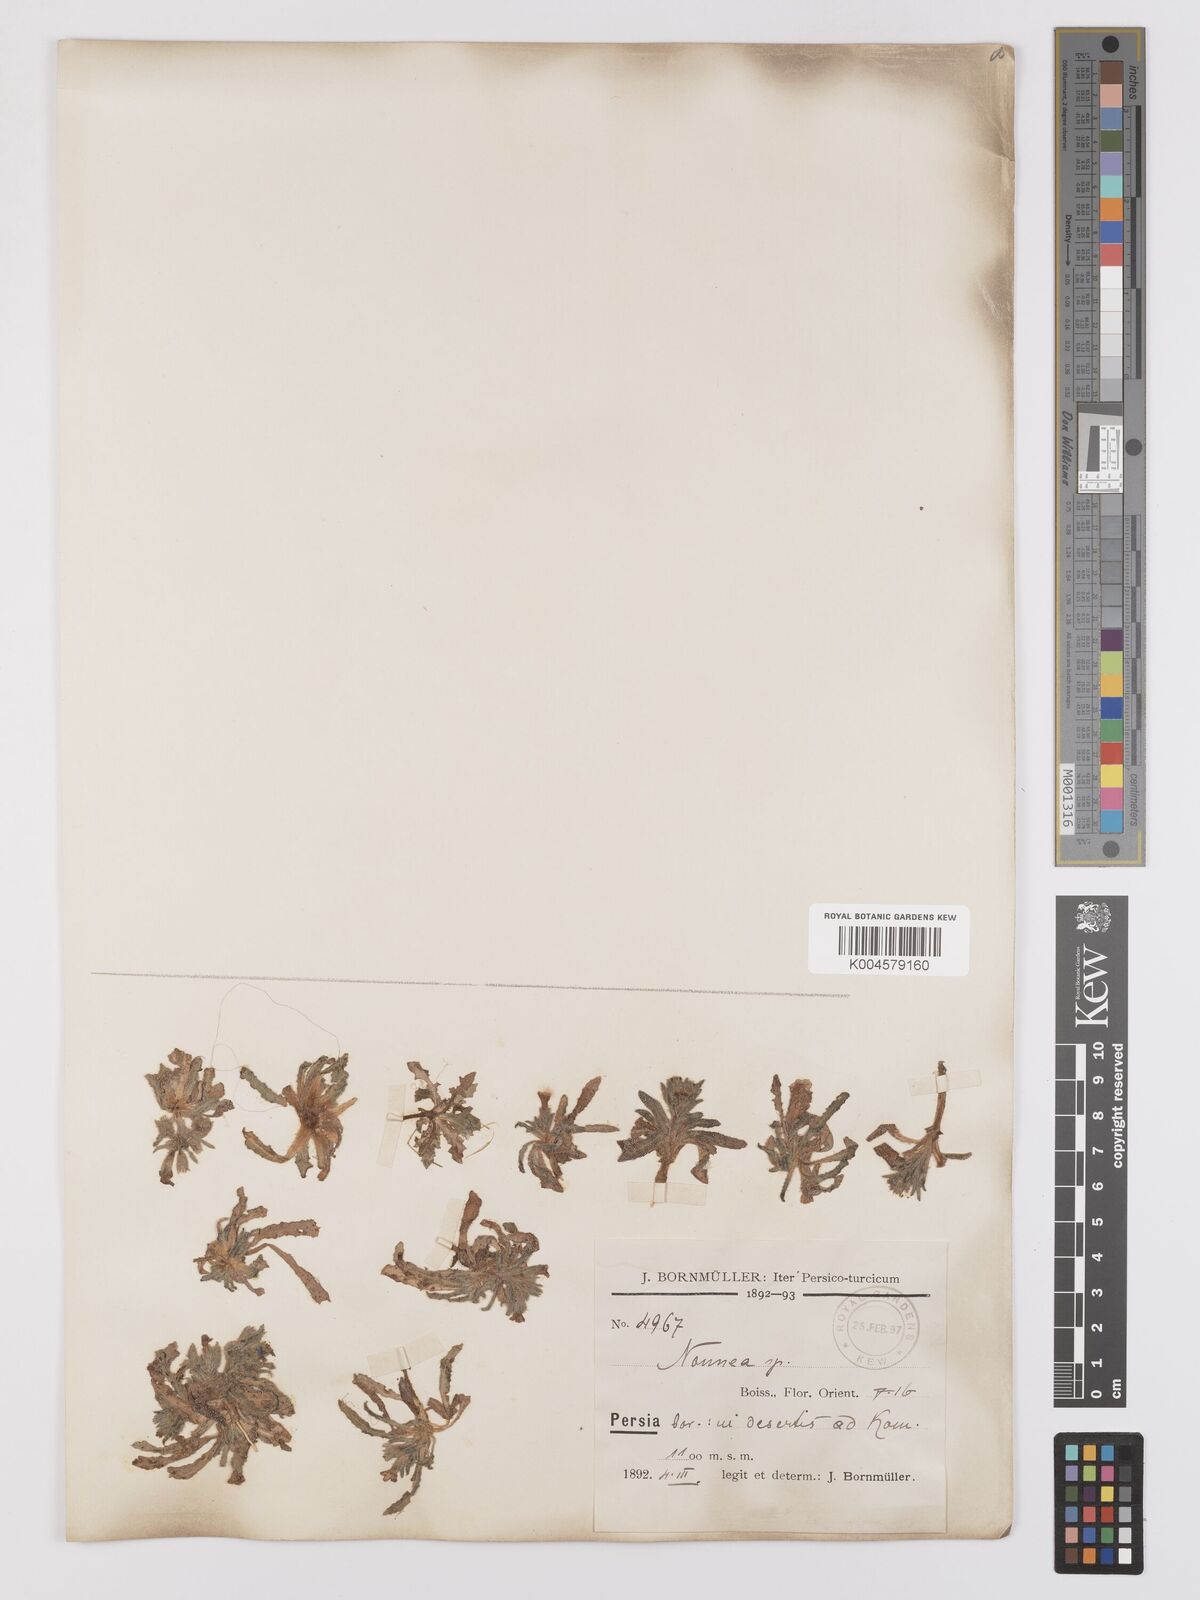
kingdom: Plantae
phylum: Tracheophyta
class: Magnoliopsida
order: Boraginales
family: Boraginaceae
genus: Nonea
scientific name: Nonea
